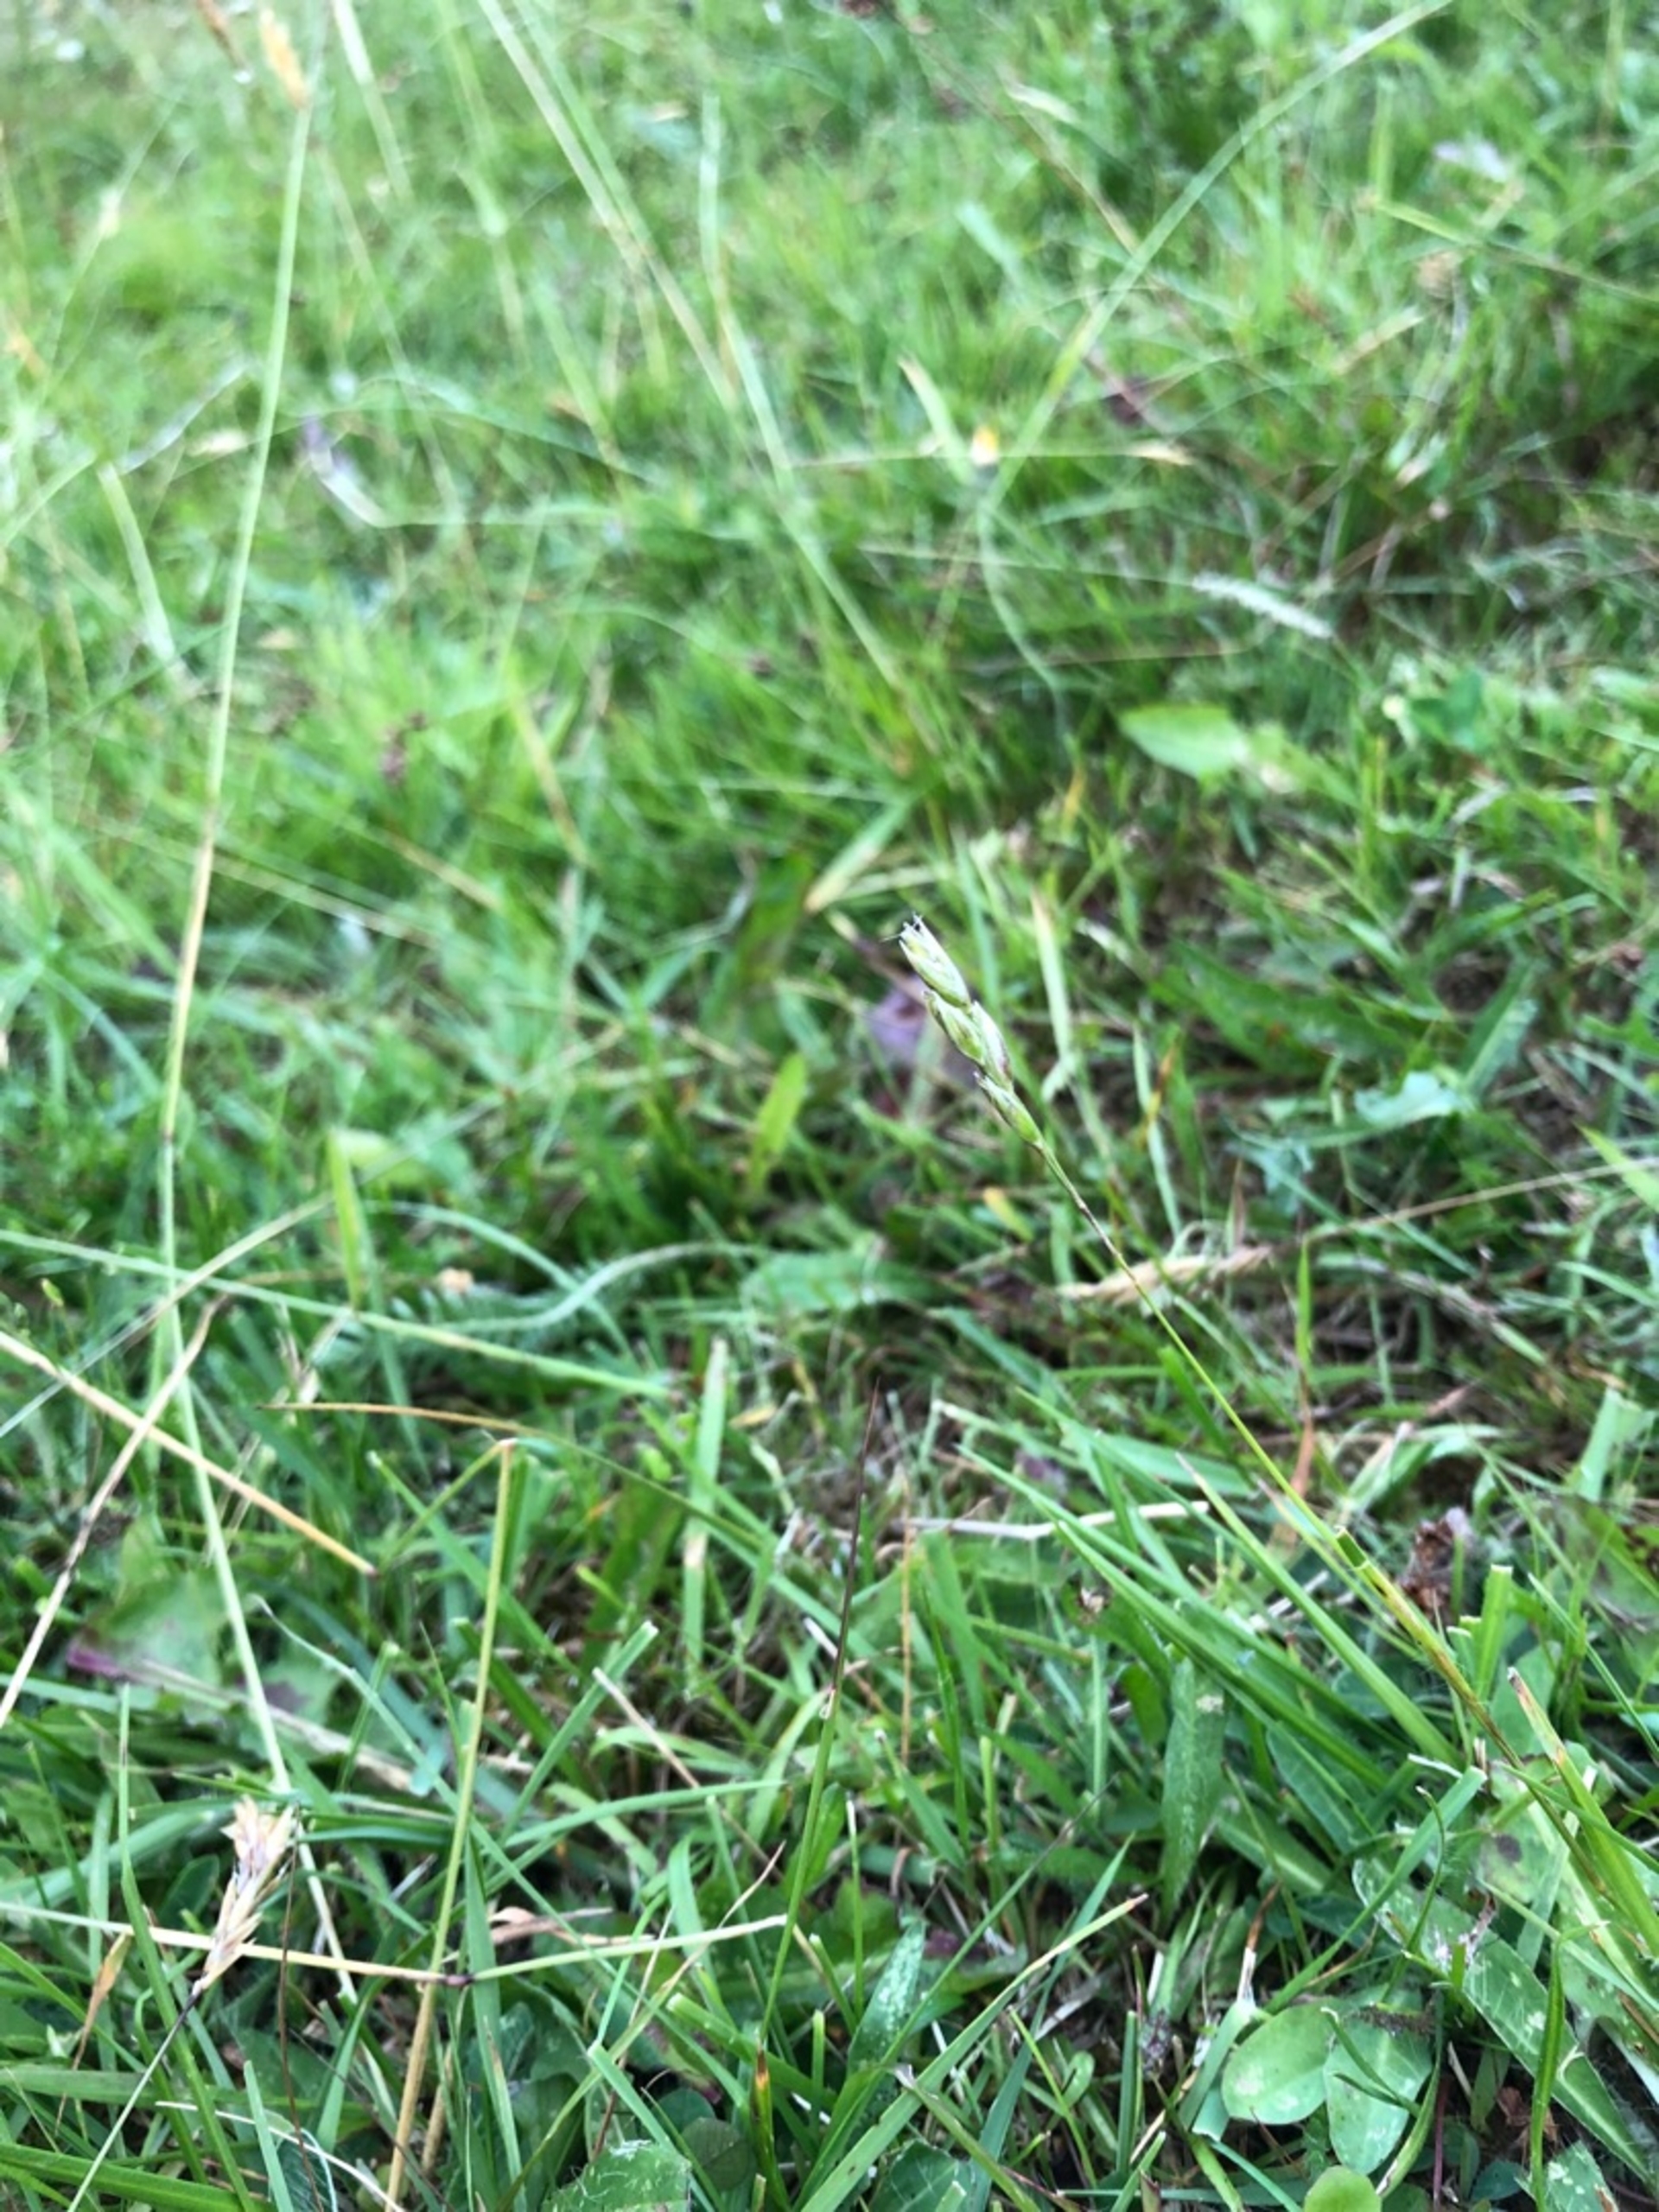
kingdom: Plantae
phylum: Tracheophyta
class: Liliopsida
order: Poales
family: Poaceae
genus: Danthonia
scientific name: Danthonia decumbens
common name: Tandbælg
